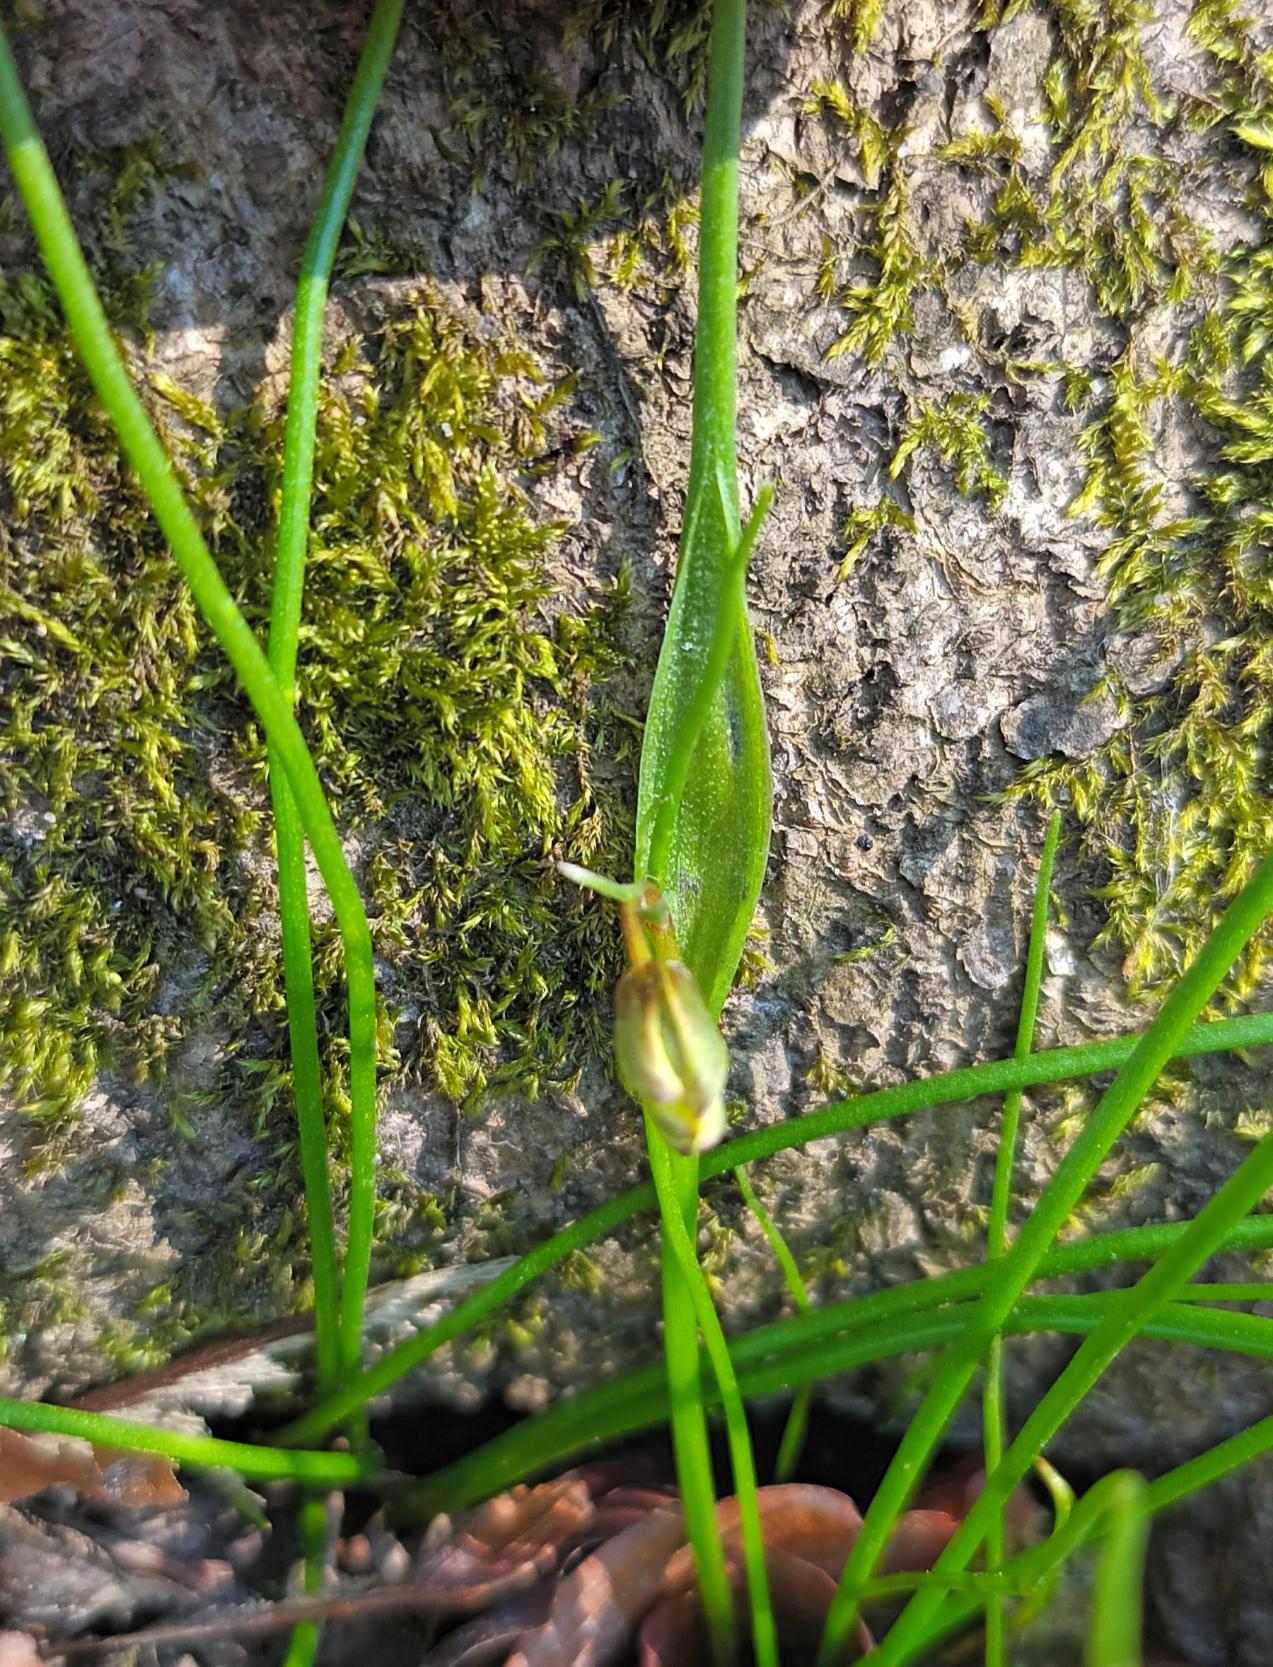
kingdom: Plantae
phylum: Tracheophyta
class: Liliopsida
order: Liliales
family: Liliaceae
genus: Gagea
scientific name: Gagea spathacea
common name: Hylster-guldstjerne
